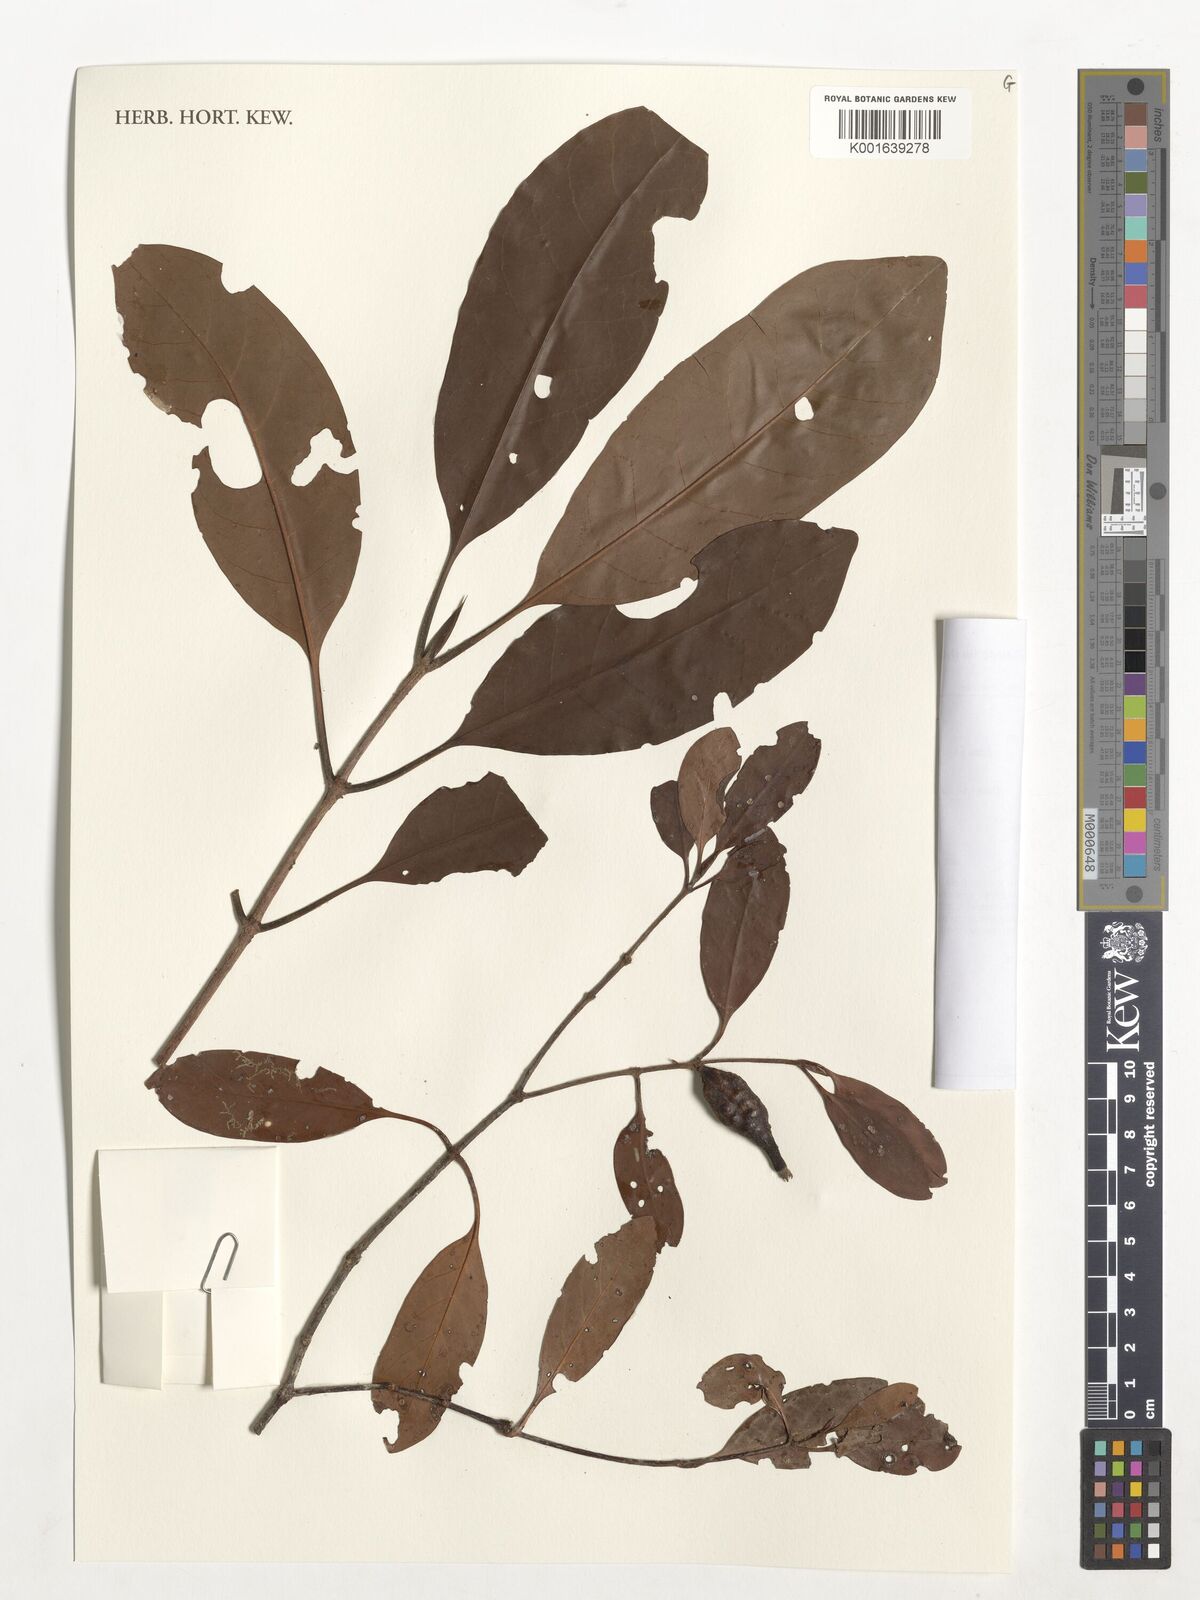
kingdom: Plantae
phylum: Tracheophyta
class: Magnoliopsida
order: Gentianales
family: Rubiaceae
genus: Atractocarpus
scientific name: Atractocarpus
